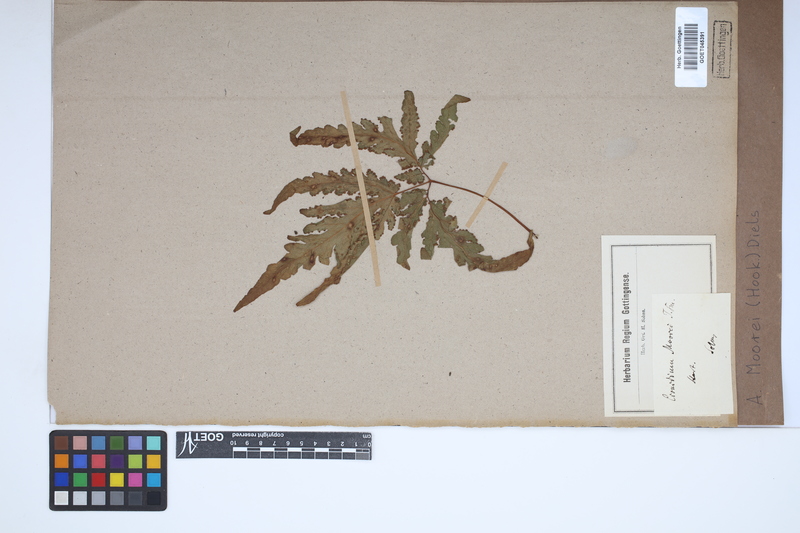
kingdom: Plantae
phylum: Tracheophyta
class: Polypodiopsida
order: Polypodiales
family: Tectariaceae
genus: Tectaria
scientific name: Tectaria moorei
